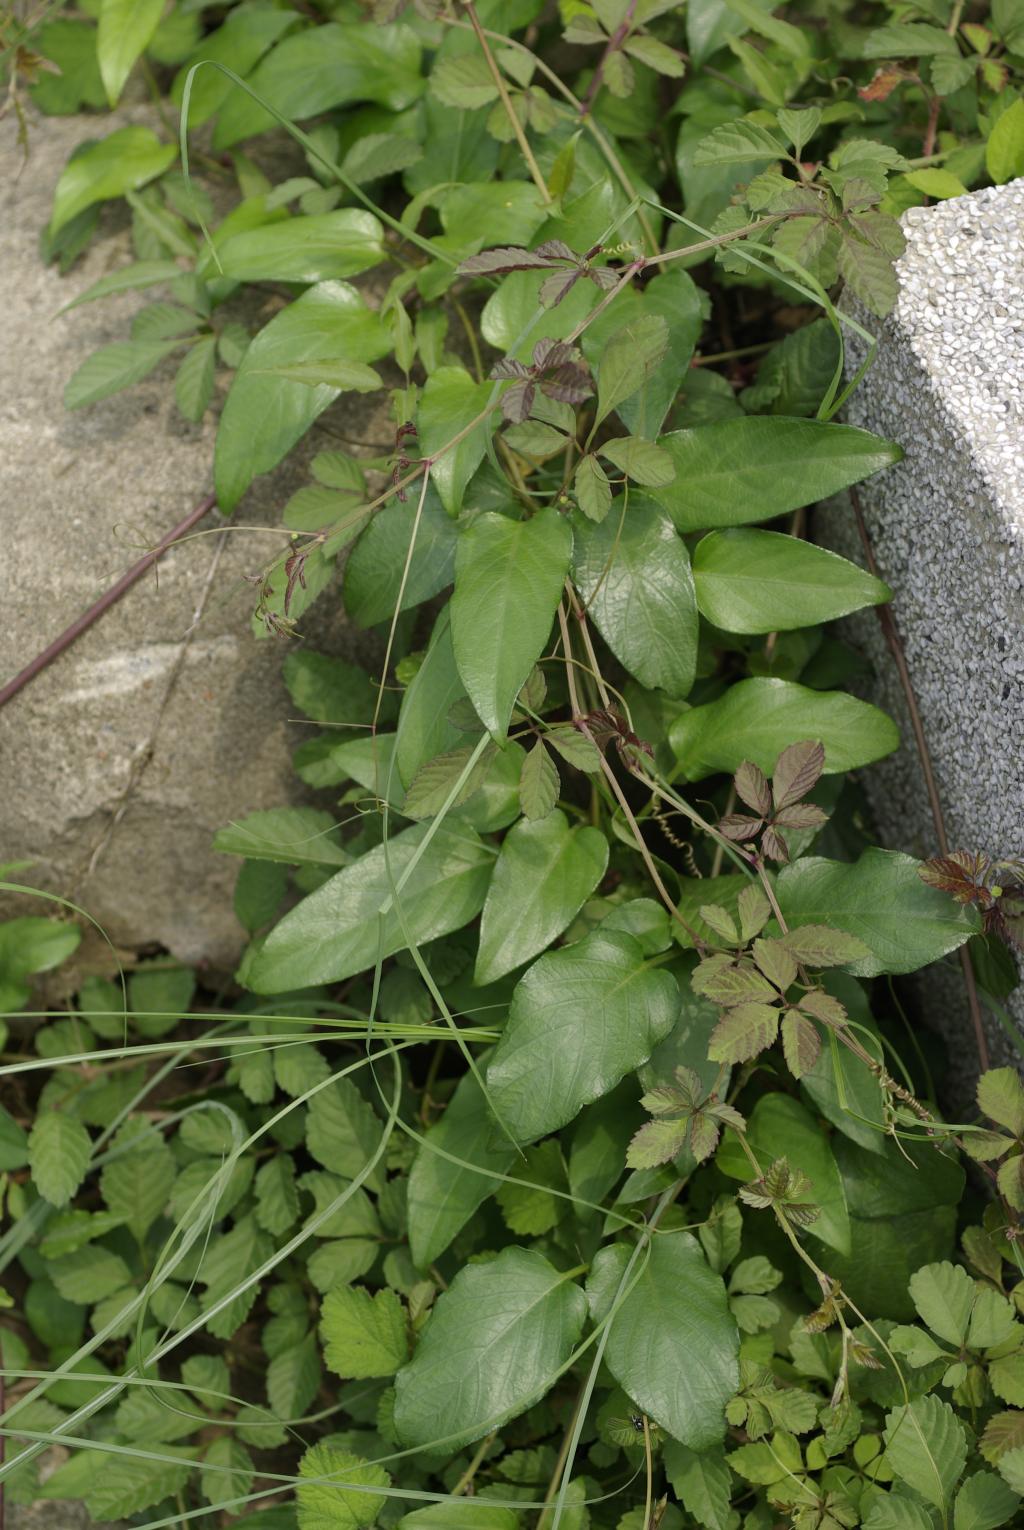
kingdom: Plantae
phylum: Tracheophyta
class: Magnoliopsida
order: Gentianales
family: Rubiaceae
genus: Paederia
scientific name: Paederia foetida
